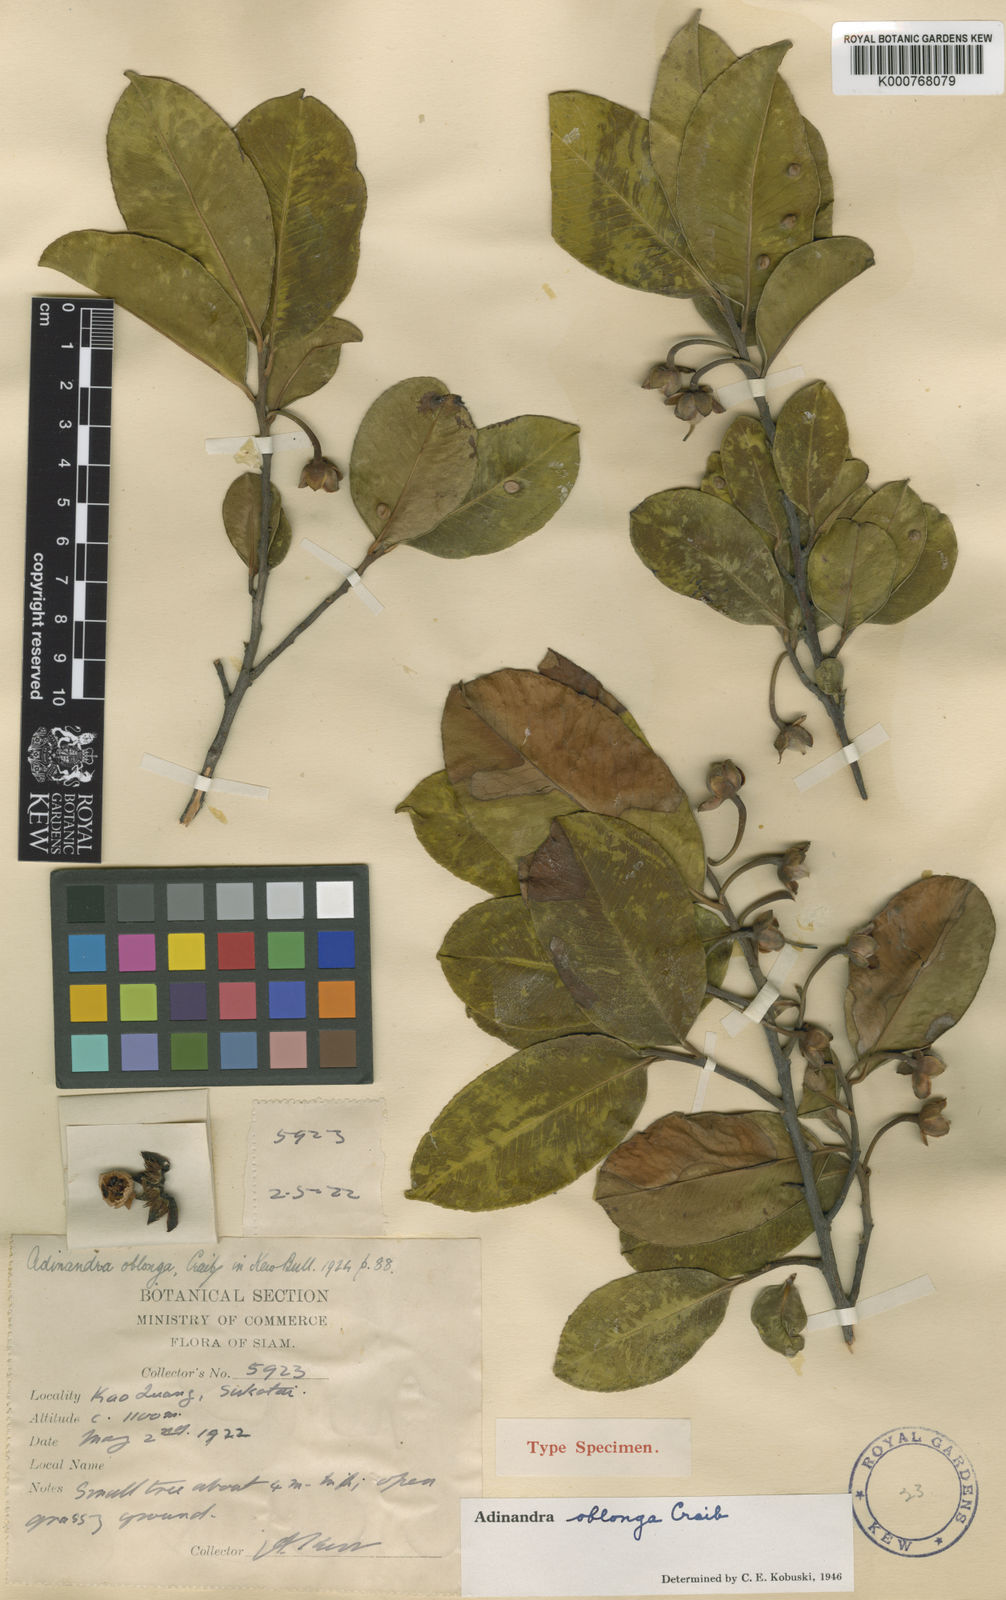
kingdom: Plantae
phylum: Tracheophyta
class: Magnoliopsida
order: Ericales
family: Pentaphylacaceae
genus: Adinandra
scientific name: Adinandra oblonga
